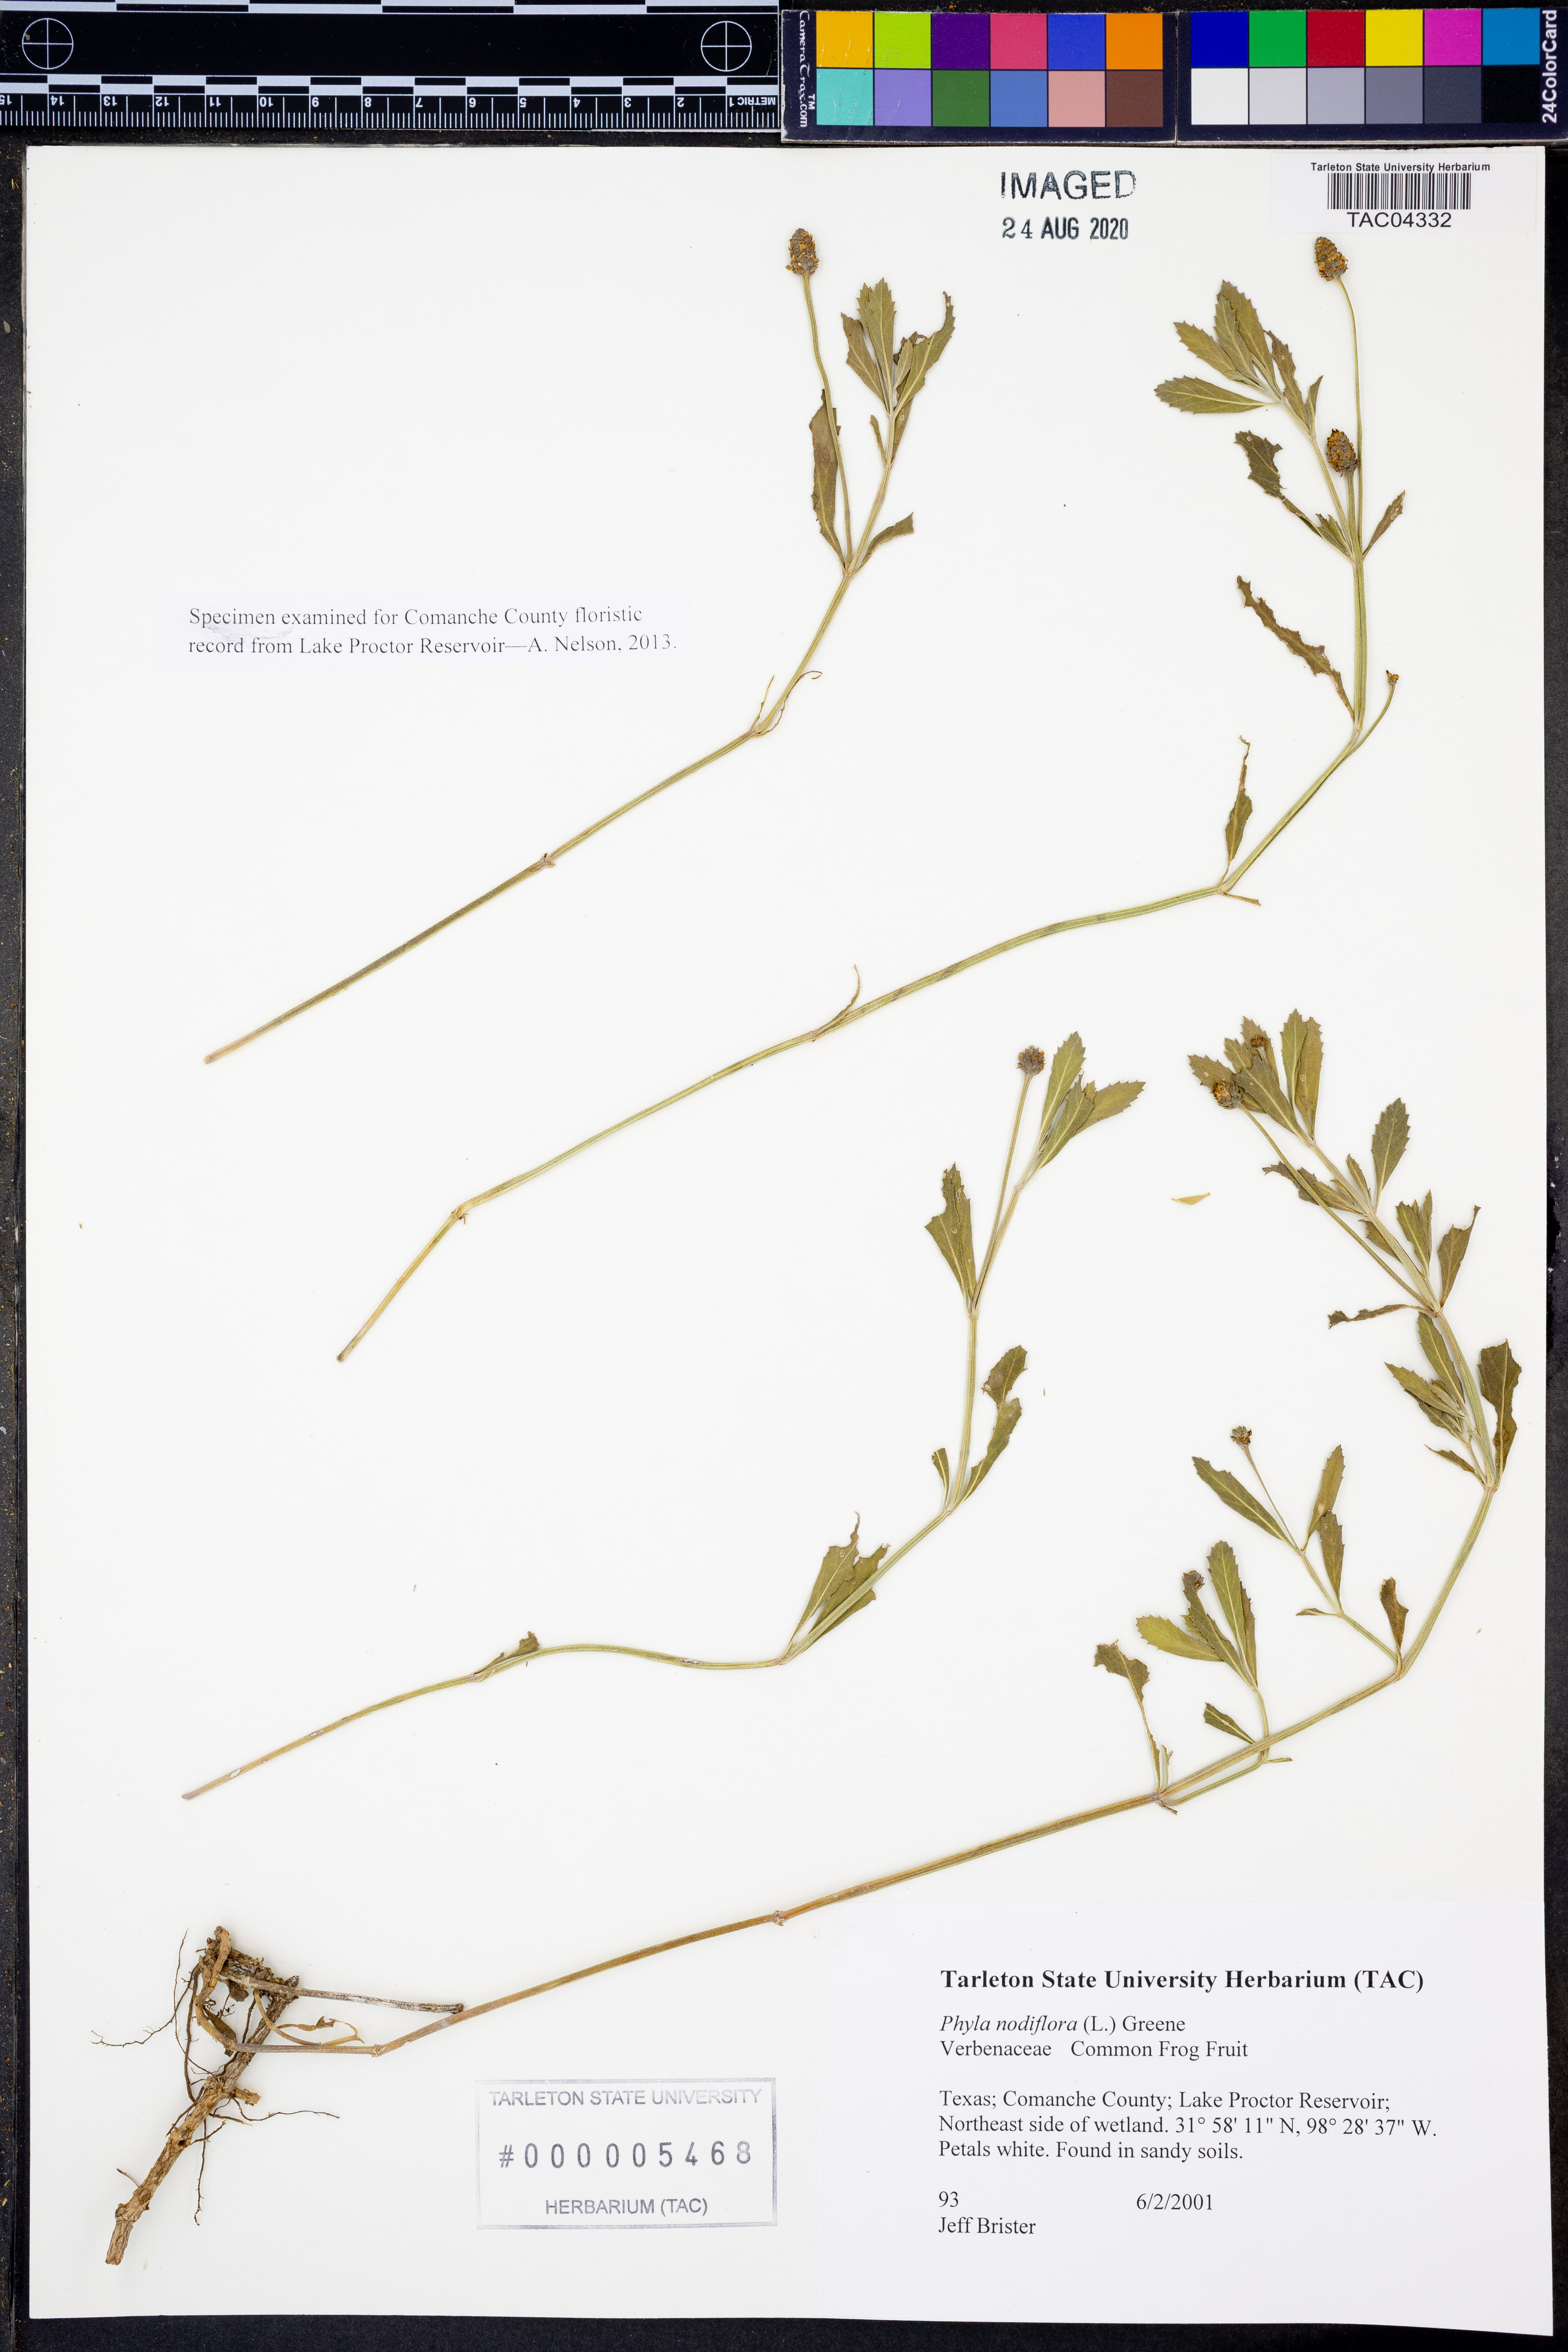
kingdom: Plantae
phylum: Tracheophyta
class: Magnoliopsida
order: Lamiales
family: Verbenaceae
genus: Phyla
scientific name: Phyla nodiflora
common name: Frogfruit
